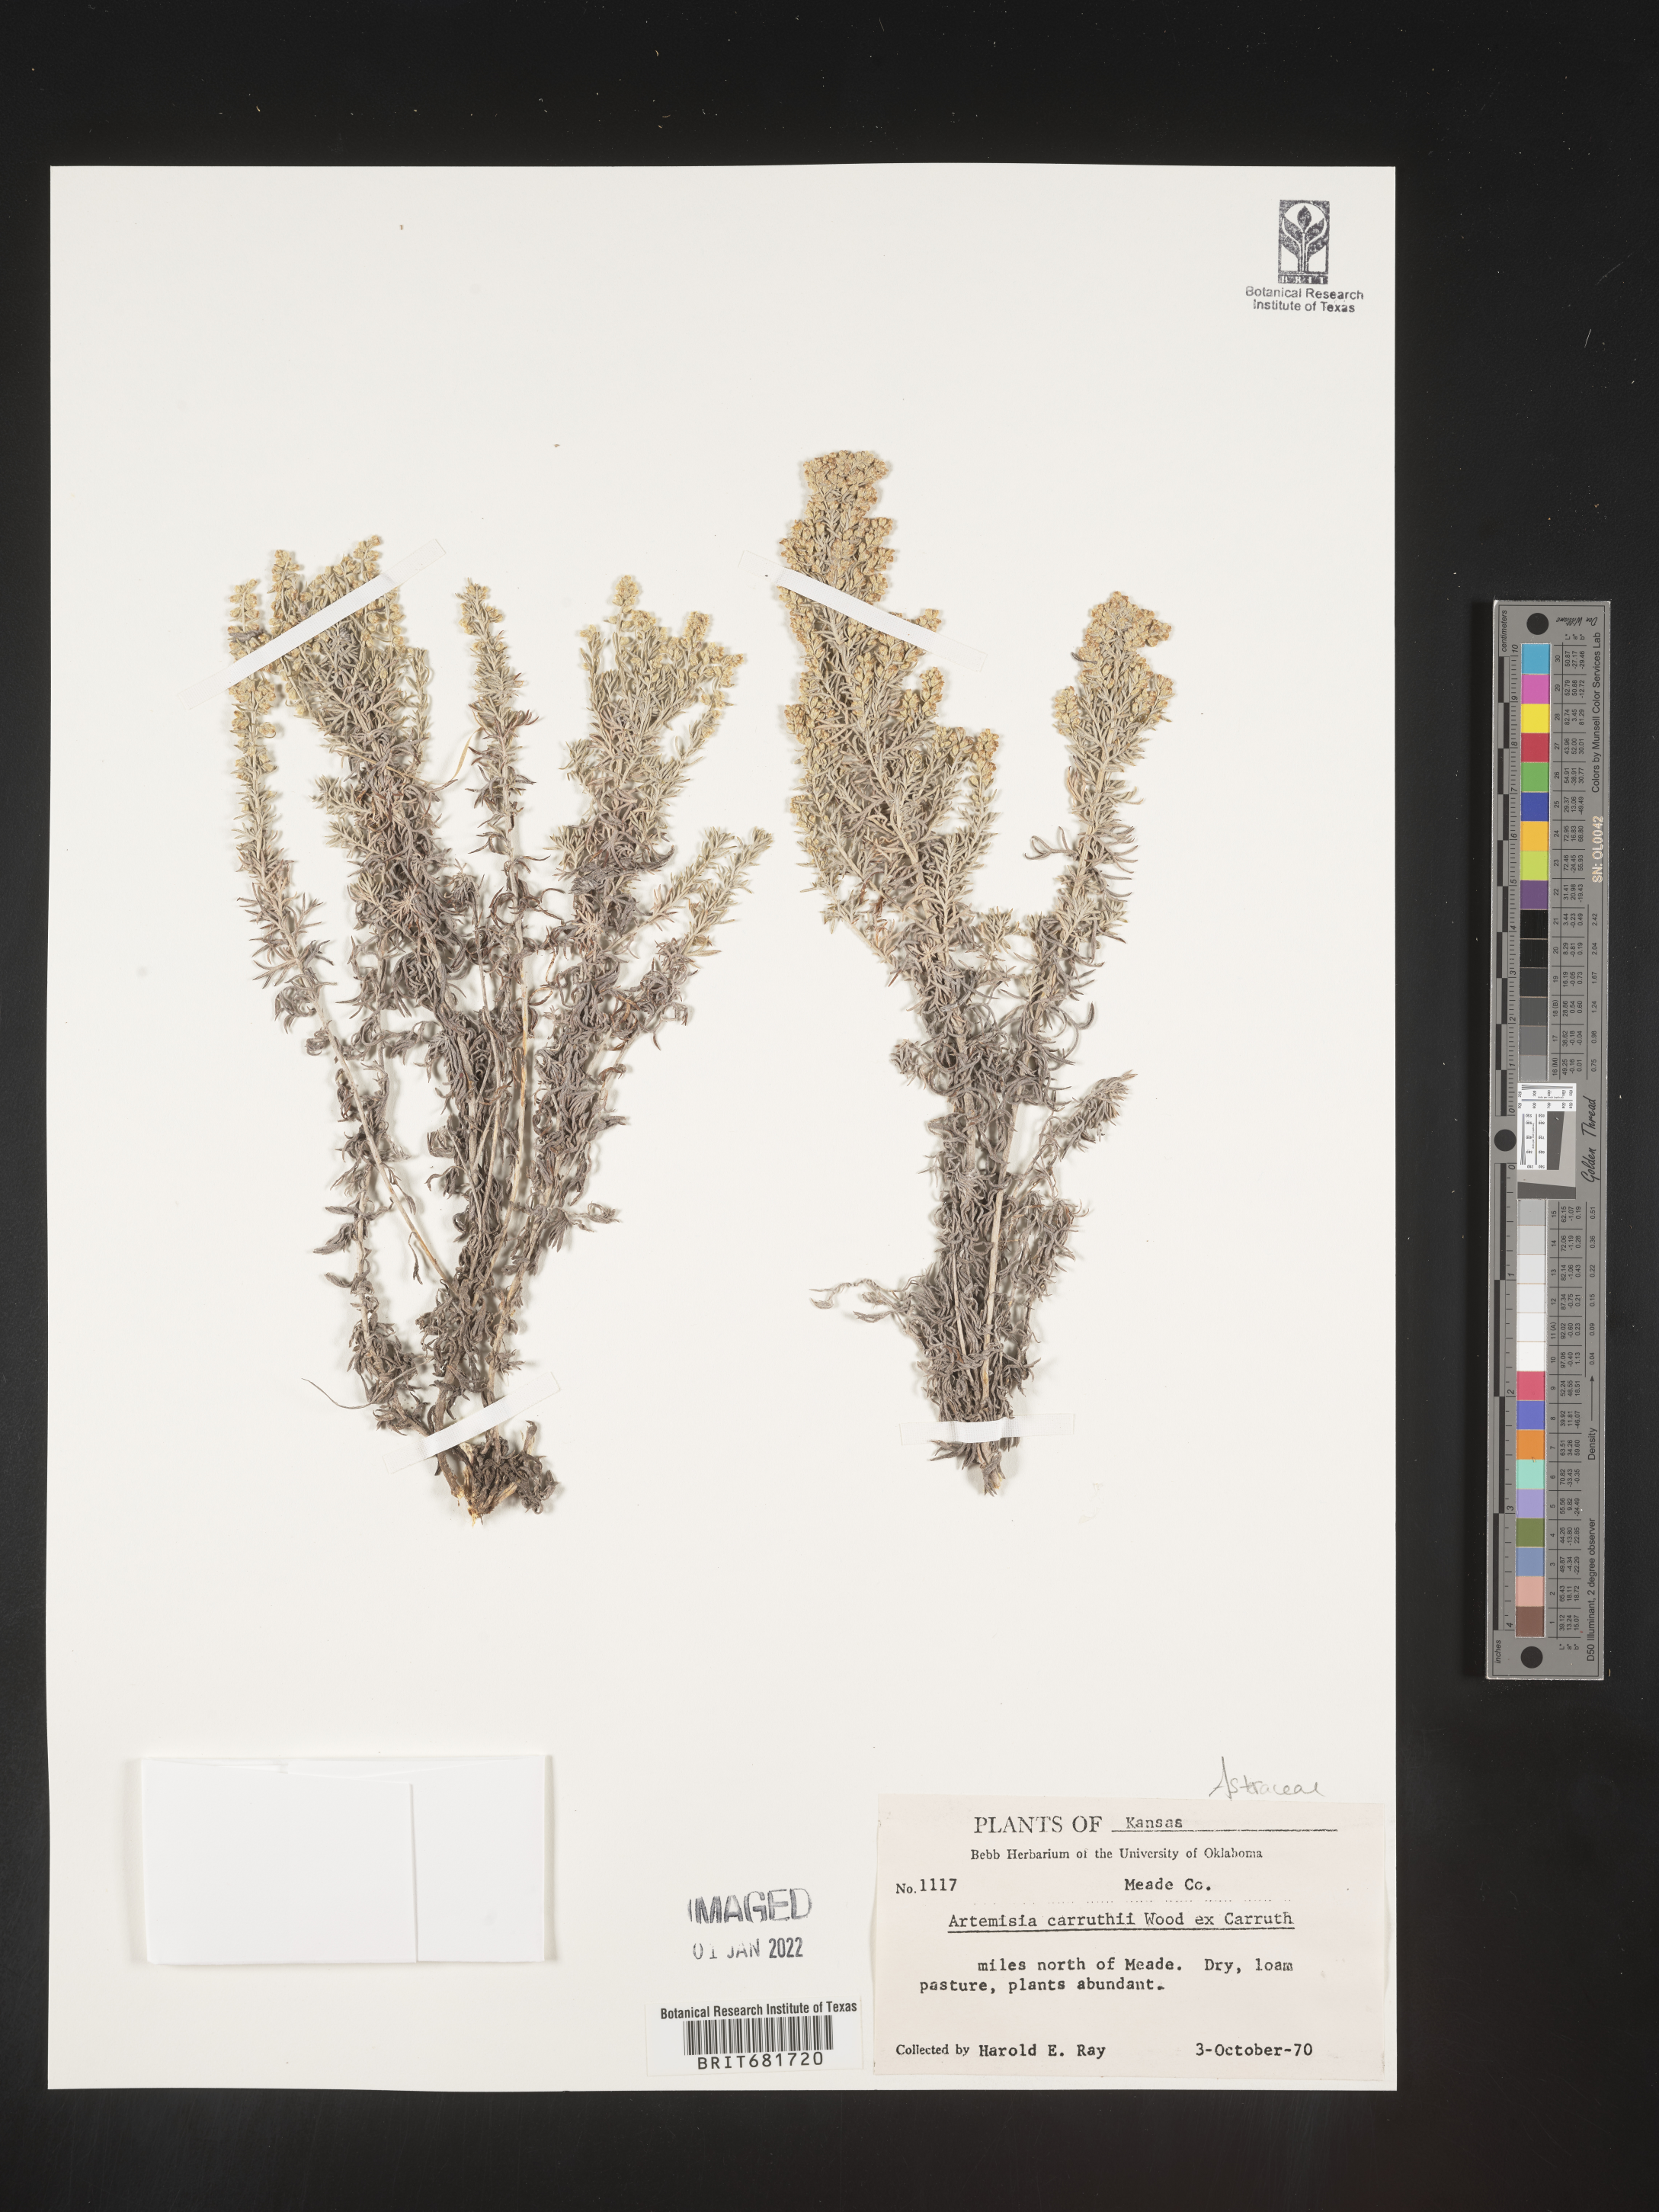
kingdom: Plantae
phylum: Tracheophyta
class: Magnoliopsida
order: Asterales
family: Asteraceae
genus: Artemisia
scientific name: Artemisia carruthii
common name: Carruth wormwood
